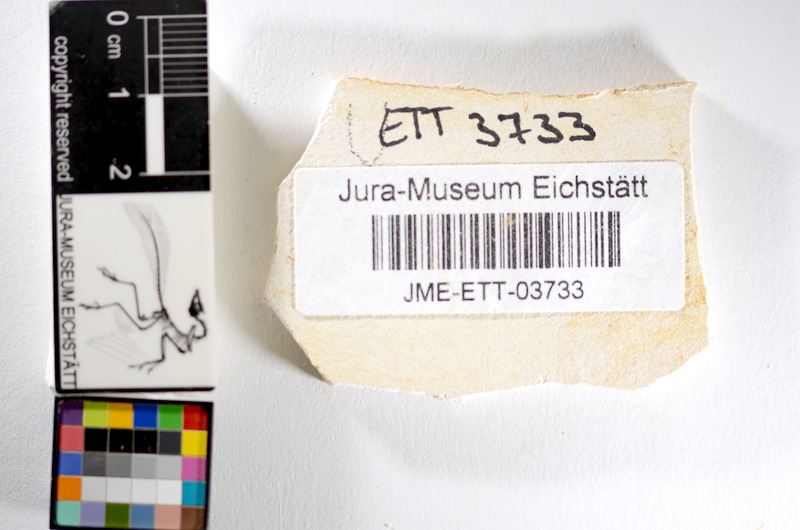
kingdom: Animalia
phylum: Chordata
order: Salmoniformes
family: Orthogonikleithridae
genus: Orthogonikleithrus
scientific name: Orthogonikleithrus hoelli
